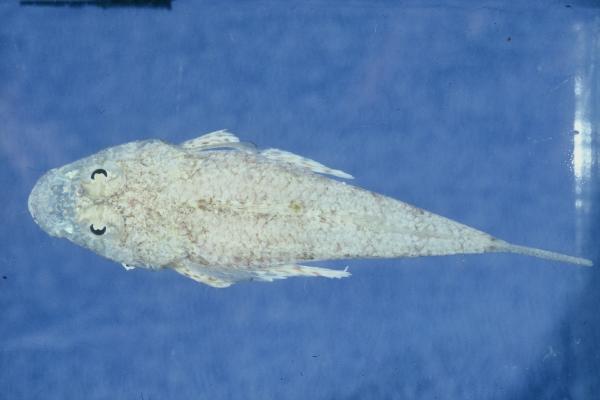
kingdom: Animalia
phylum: Chordata
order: Scorpaeniformes
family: Platycephalidae
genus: Onigocia
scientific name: Onigocia oligolepis
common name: Dwarf flathead
